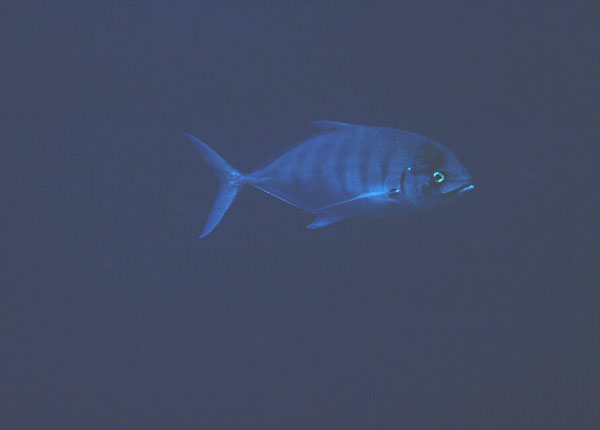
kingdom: Animalia
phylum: Chordata
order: Perciformes
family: Carangidae
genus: Carangoides
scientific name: Carangoides ferdau
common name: Blue trevally
